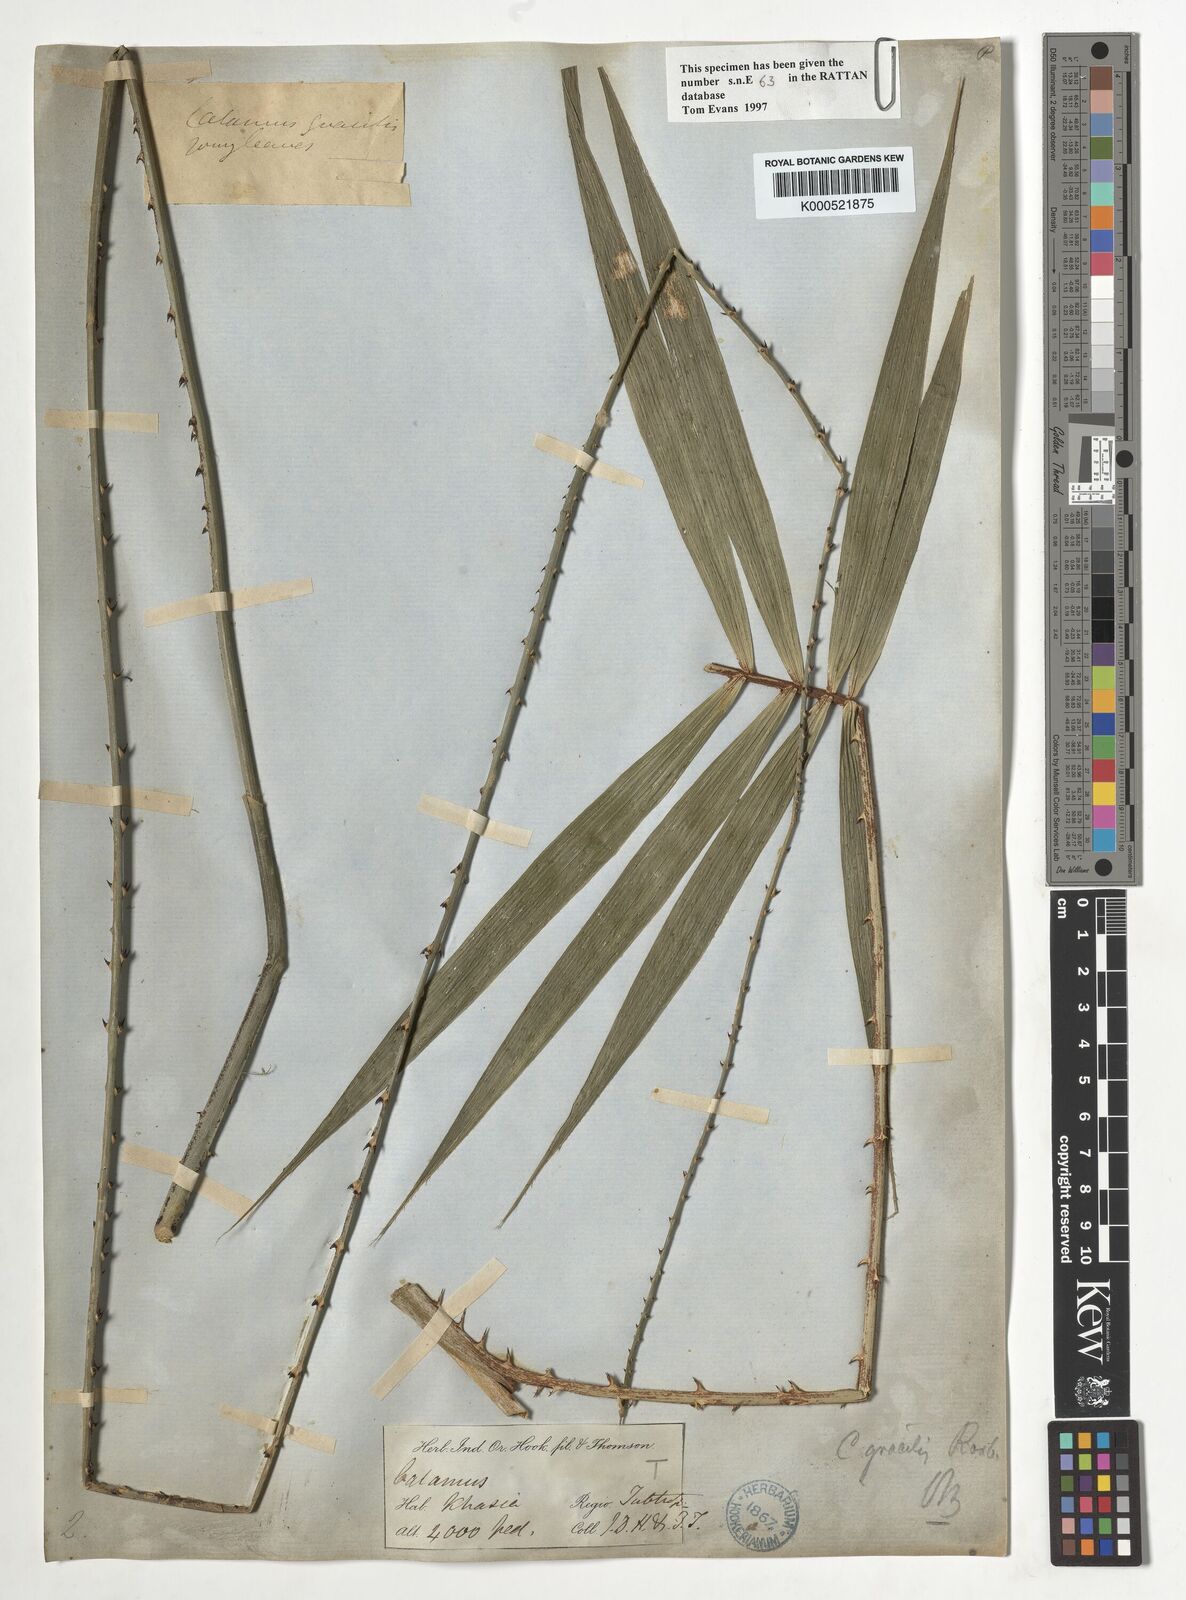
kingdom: Plantae
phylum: Tracheophyta
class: Liliopsida
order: Arecales
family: Arecaceae
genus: Calamus
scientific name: Calamus gracilis
